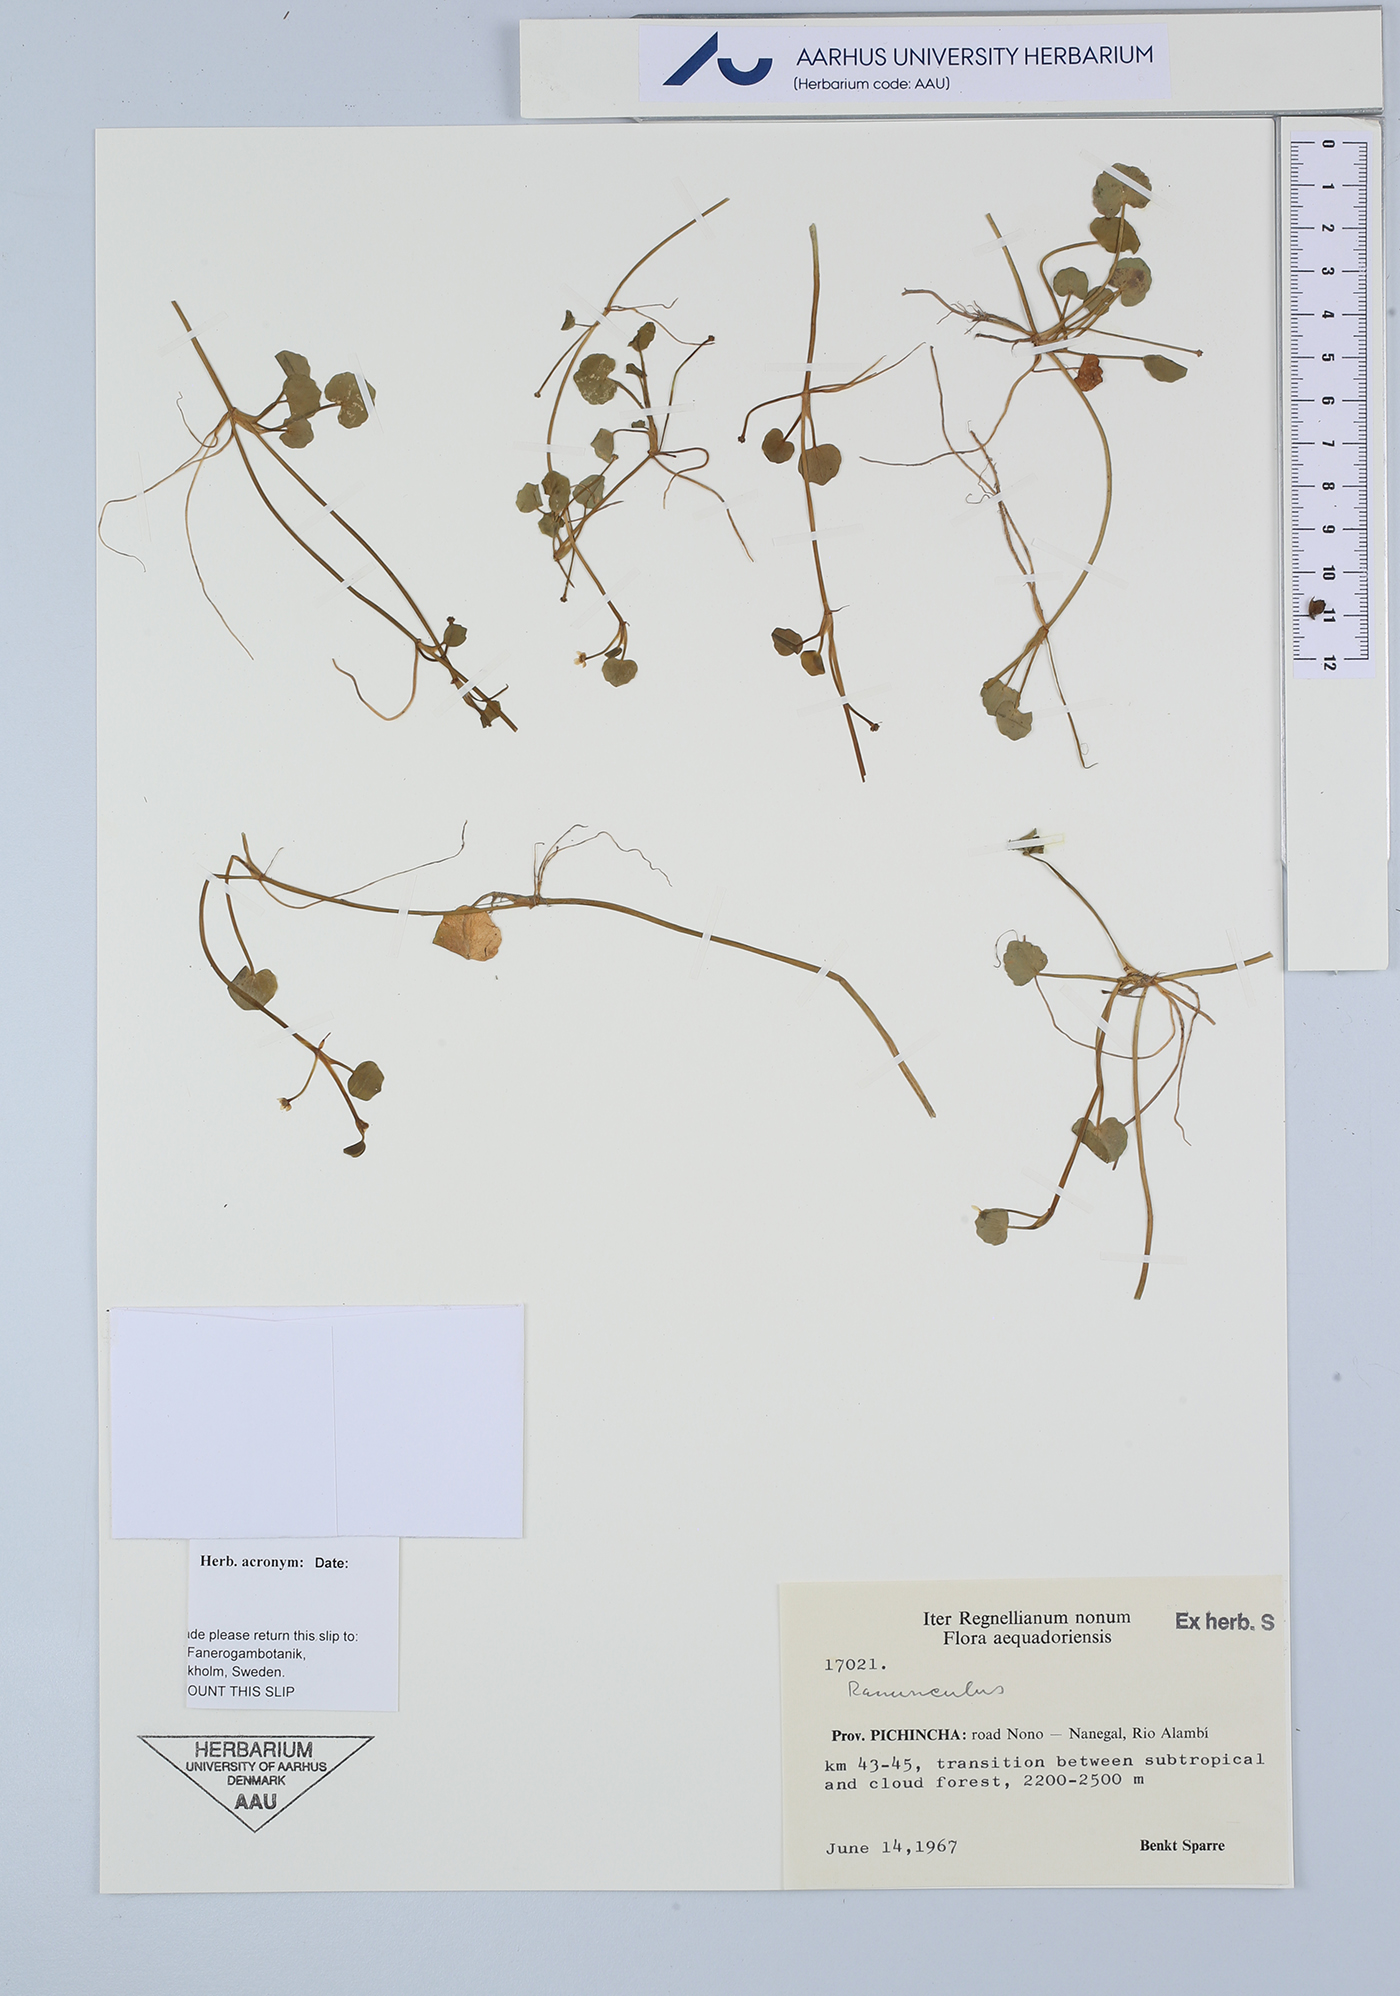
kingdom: Plantae
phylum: Tracheophyta
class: Magnoliopsida
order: Ranunculales
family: Ranunculaceae
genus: Ranunculus
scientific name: Ranunculus
